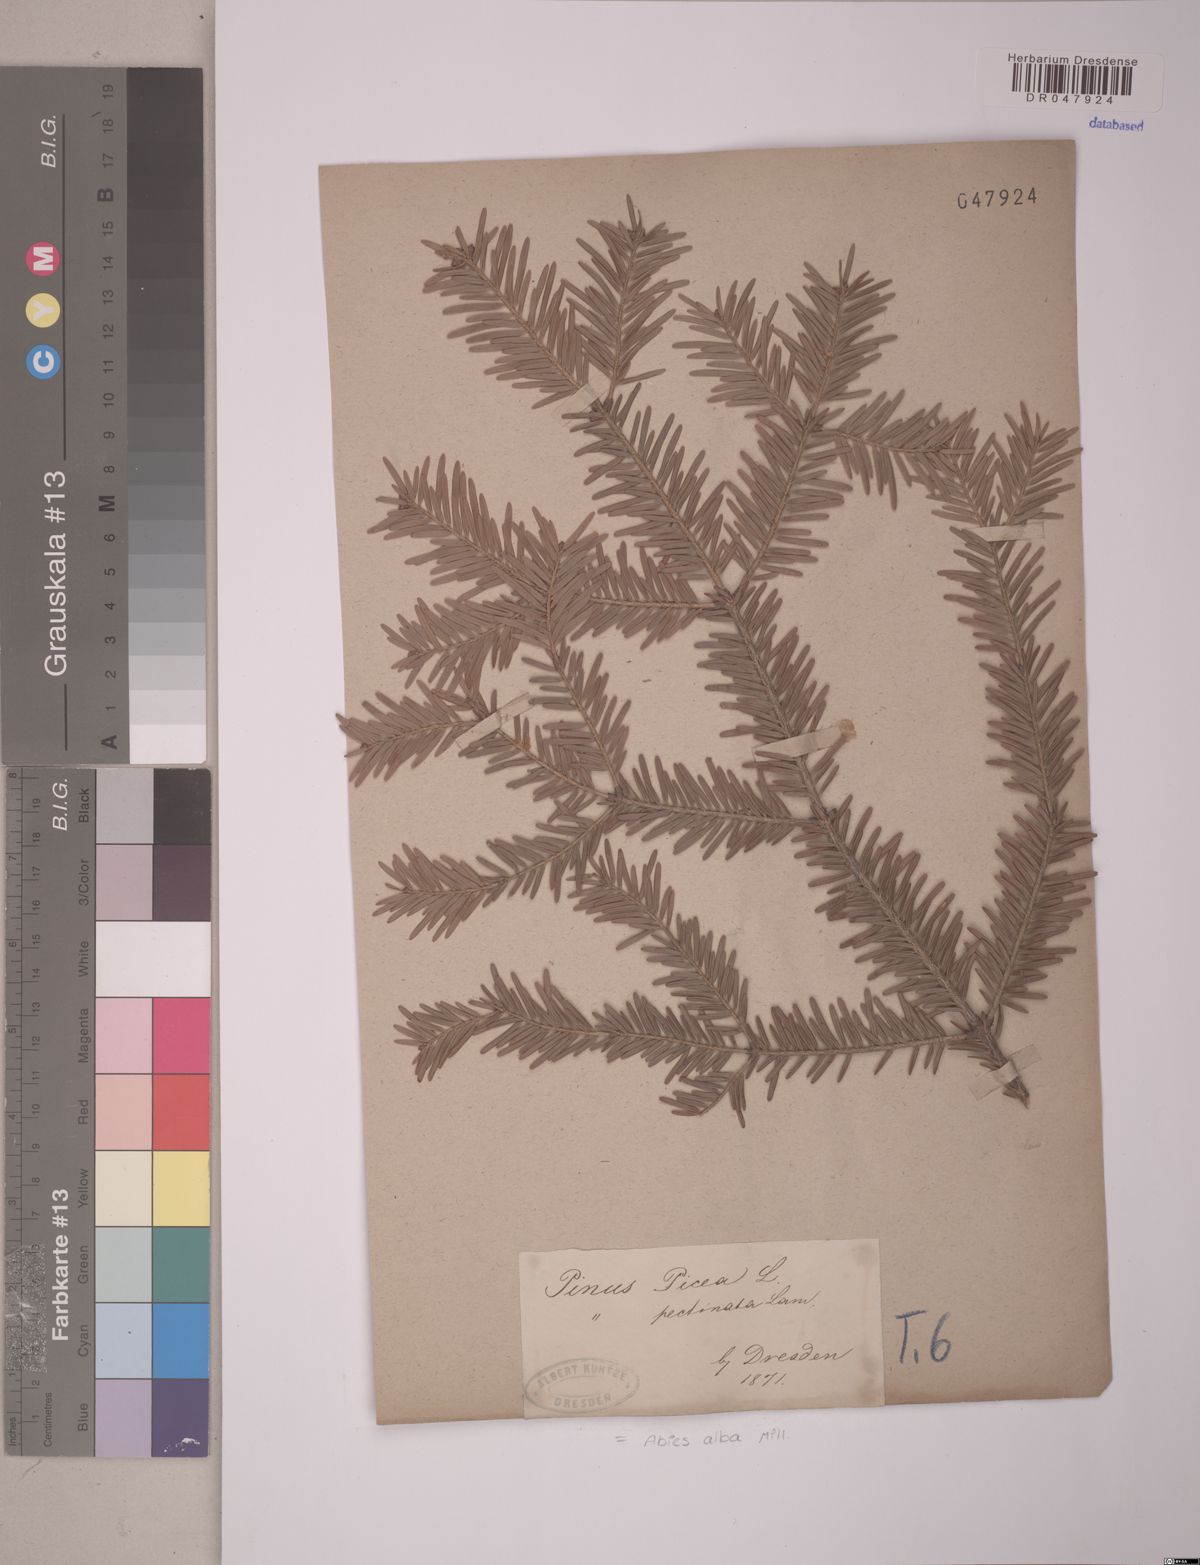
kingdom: Plantae
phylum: Tracheophyta
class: Pinopsida
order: Pinales
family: Pinaceae
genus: Abies
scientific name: Abies alba
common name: Silver fir
